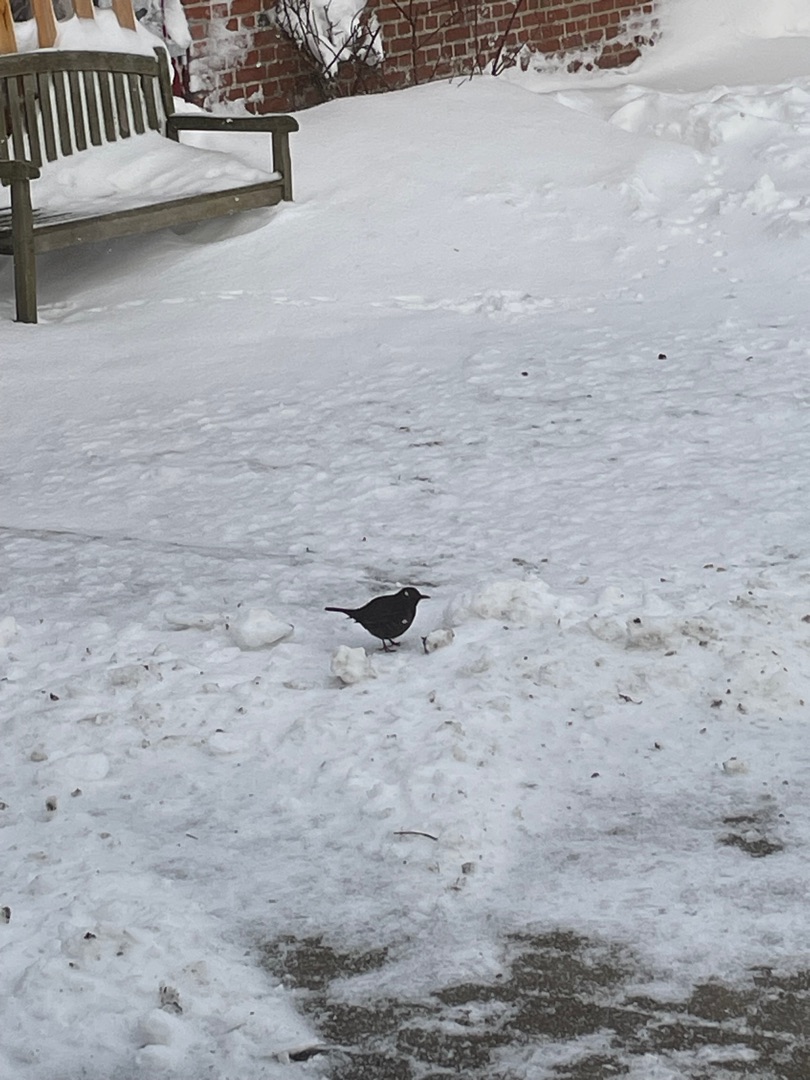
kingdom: Animalia
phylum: Chordata
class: Aves
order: Passeriformes
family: Turdidae
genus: Turdus
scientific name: Turdus merula
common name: Solsort
